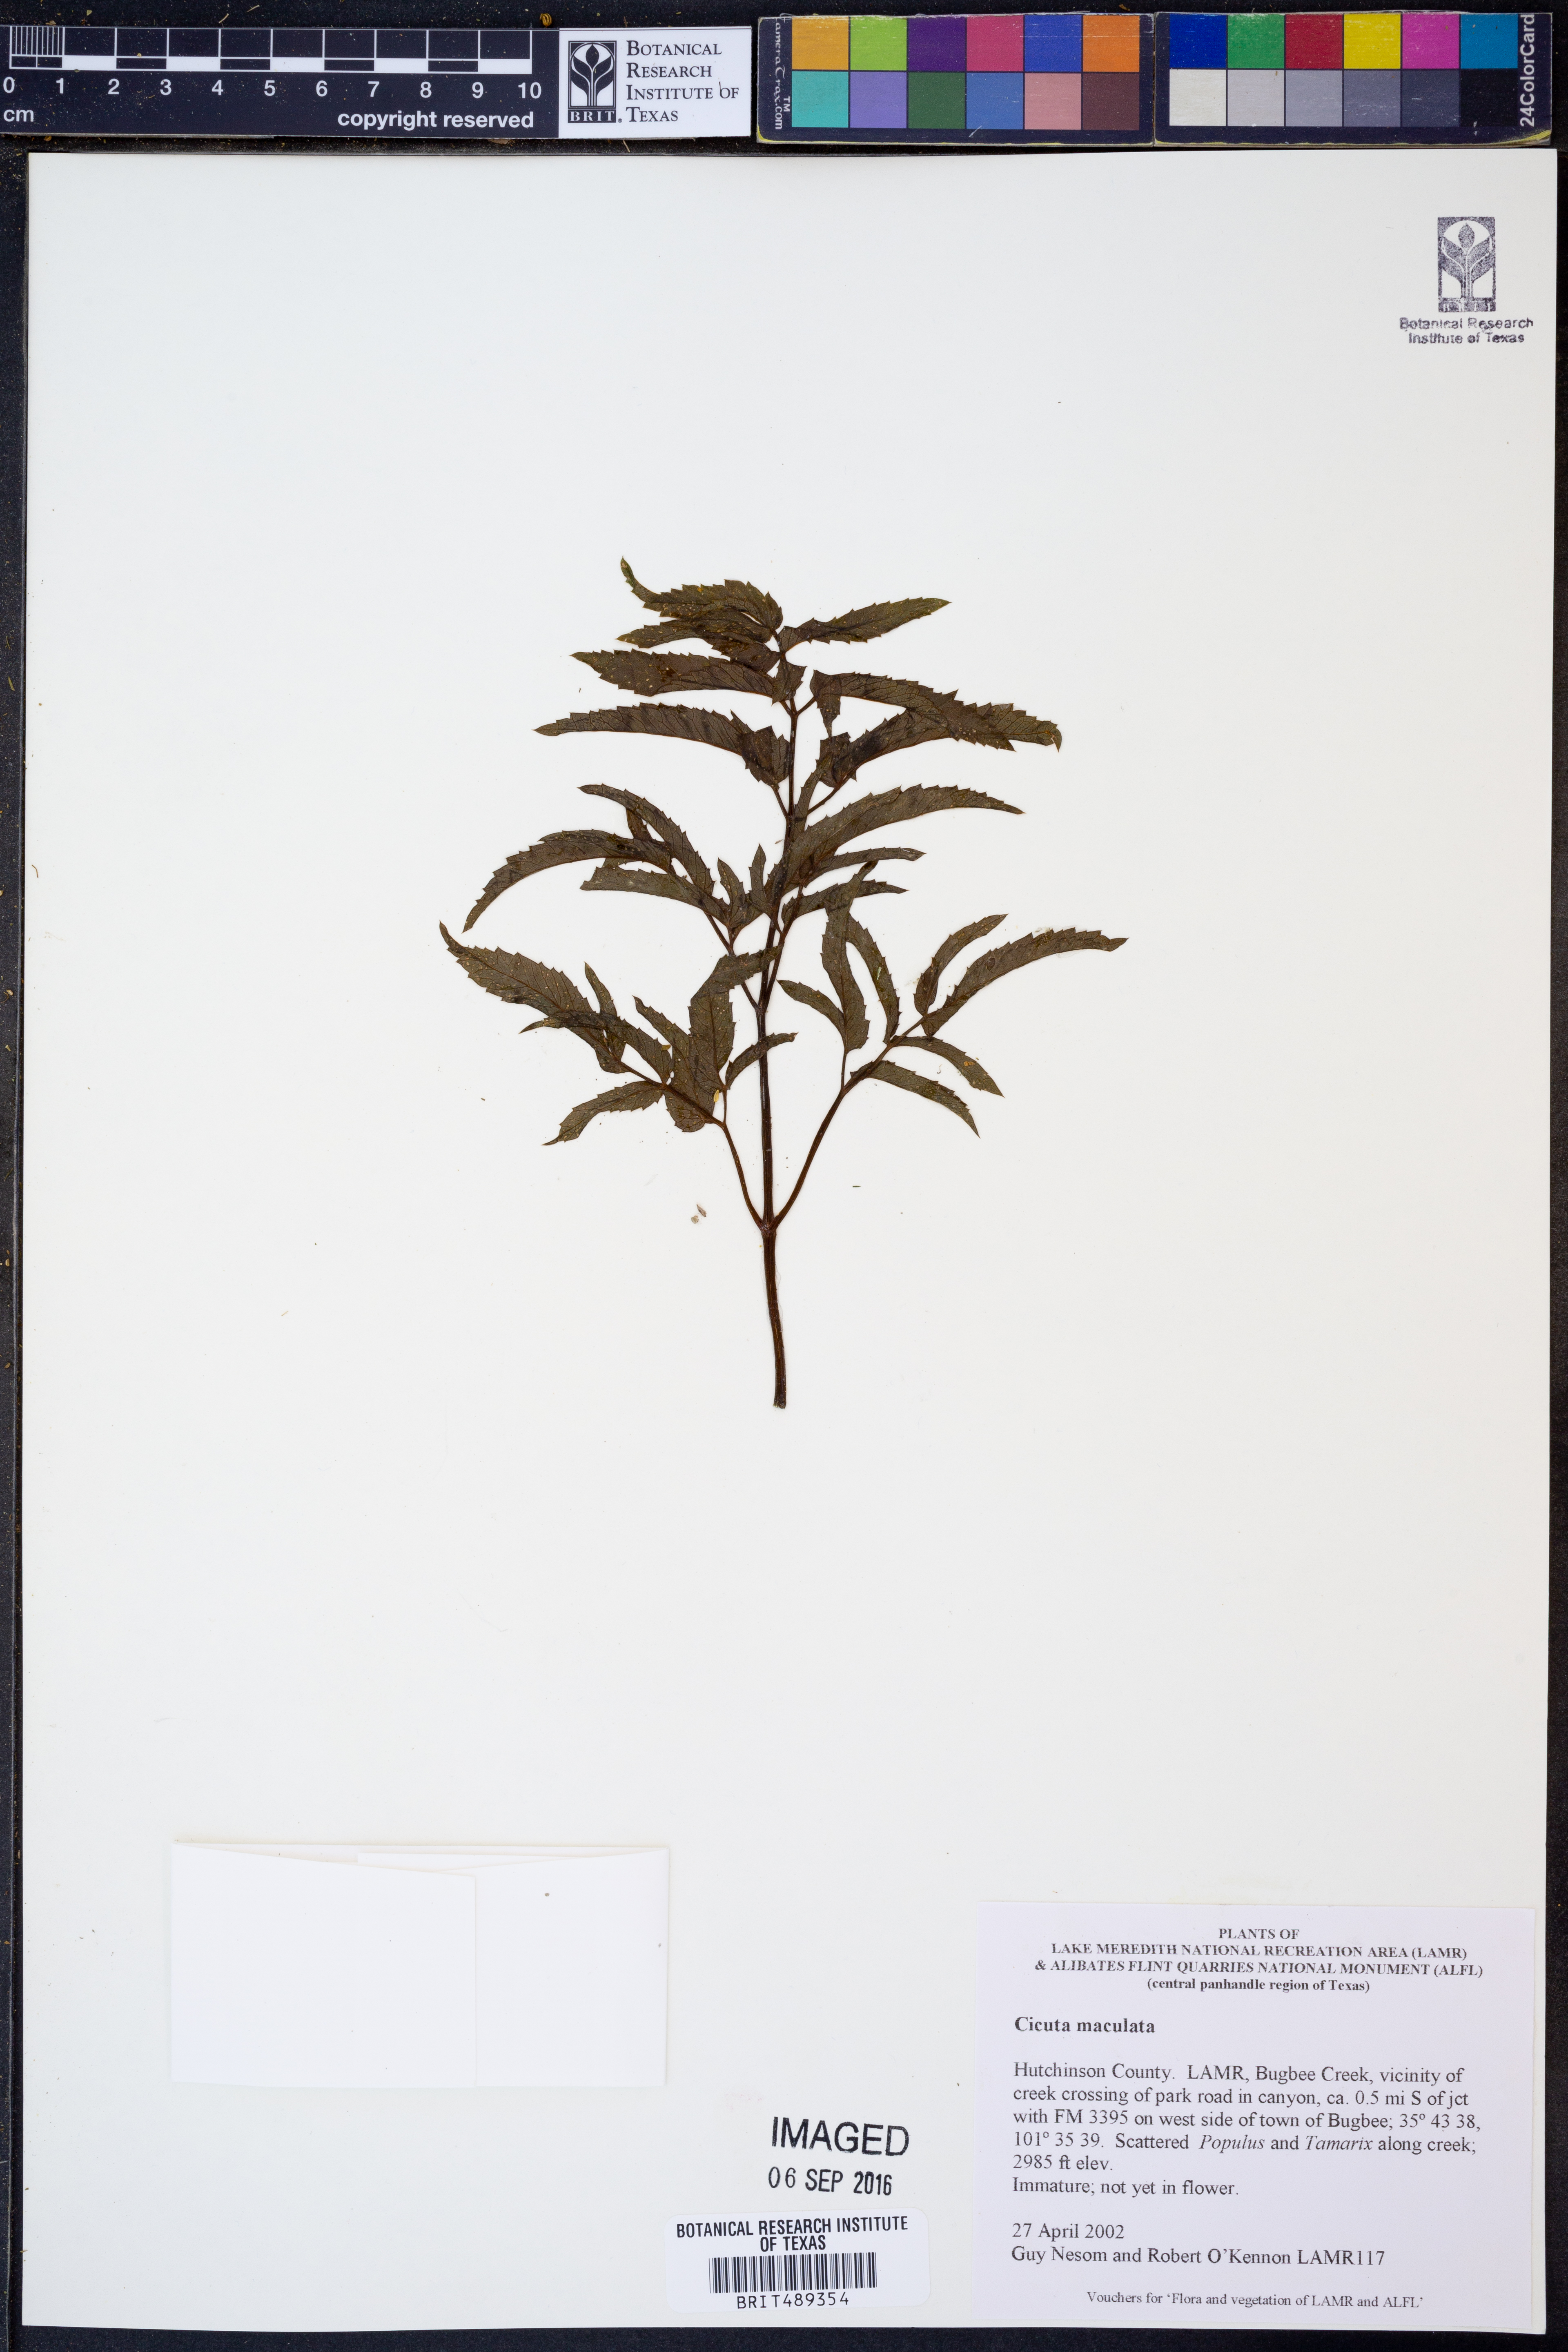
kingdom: Plantae
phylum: Tracheophyta
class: Magnoliopsida
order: Apiales
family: Apiaceae
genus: Cicuta
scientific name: Cicuta maculata
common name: Spotted cowbane
